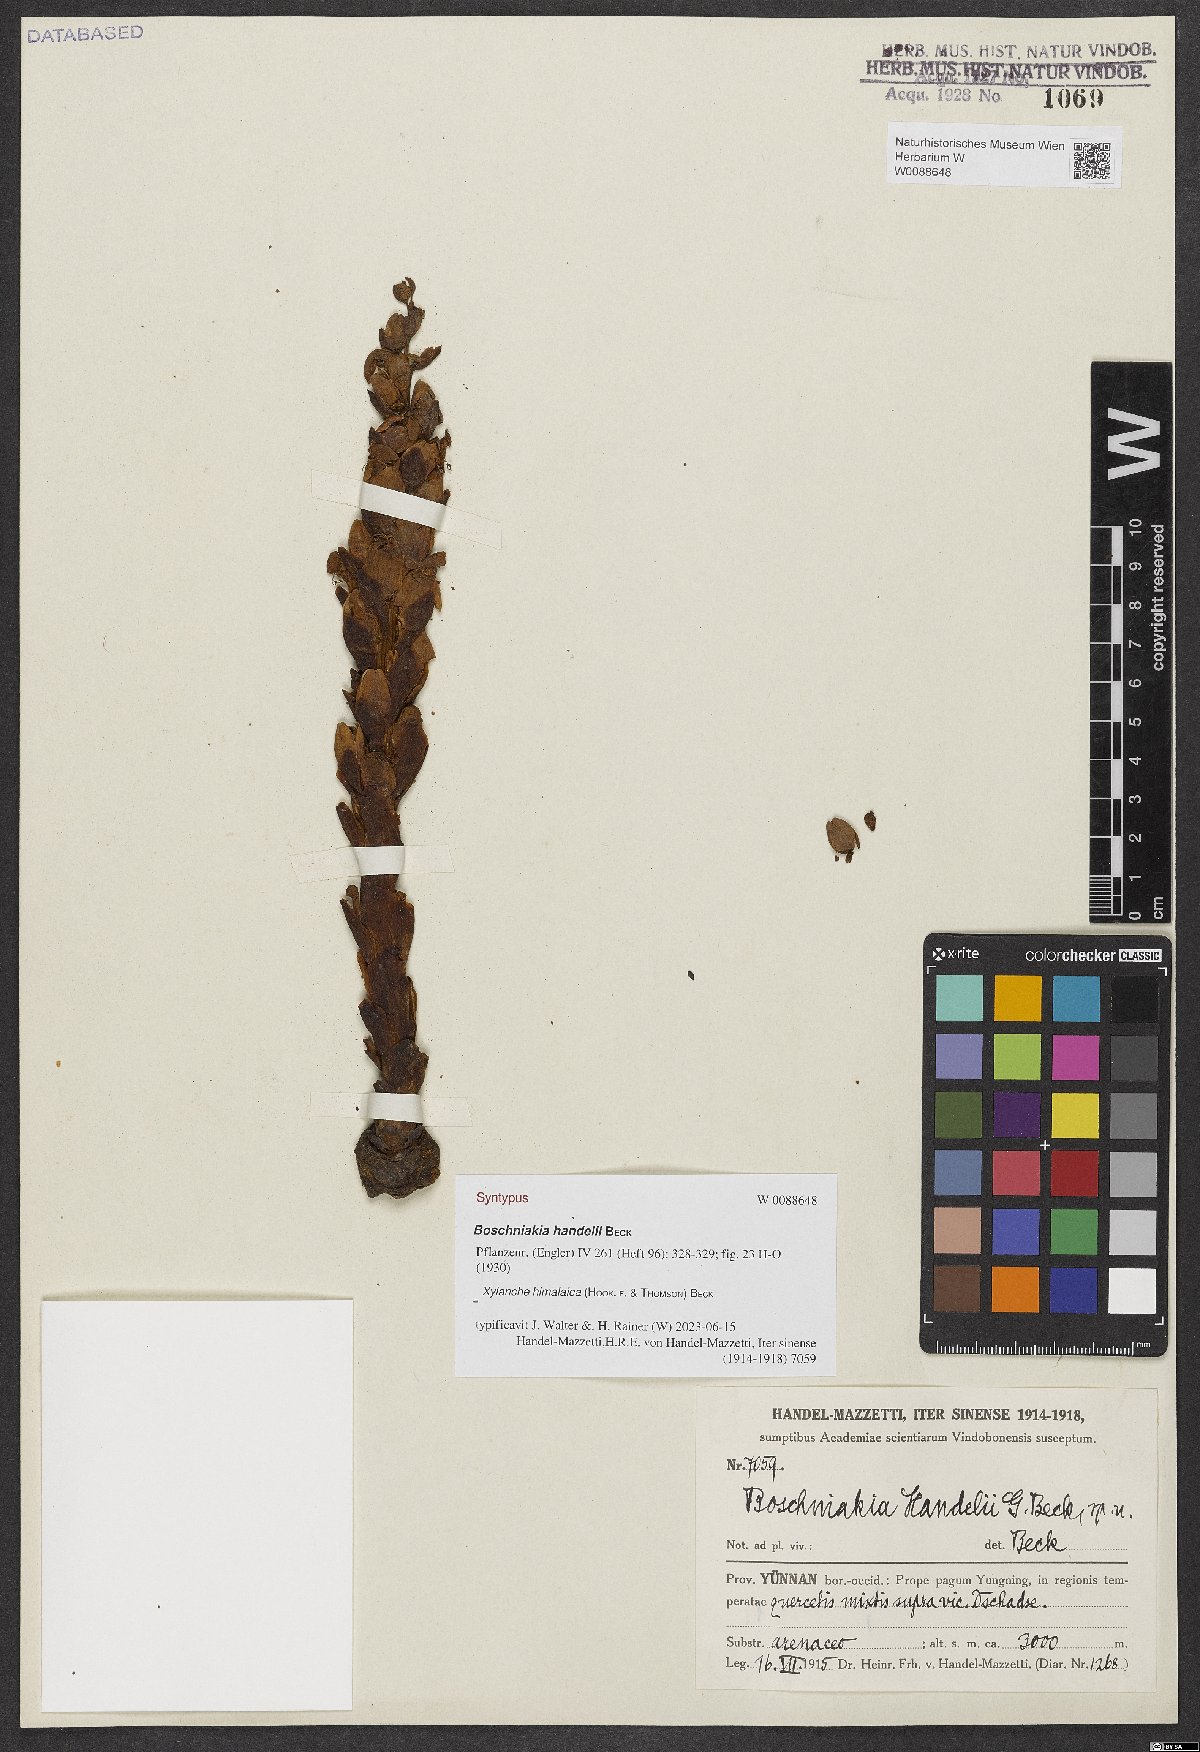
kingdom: Plantae
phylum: Tracheophyta
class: Magnoliopsida
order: Lamiales
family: Orobanchaceae
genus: Boschniakia
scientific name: Boschniakia himalaica
